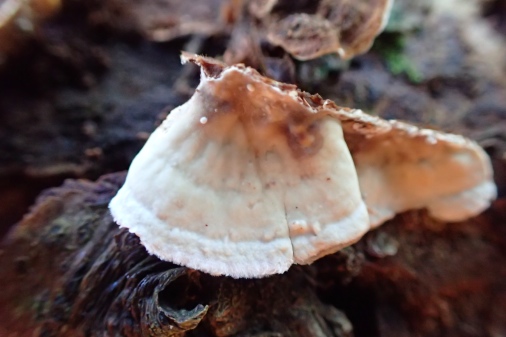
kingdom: Fungi
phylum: Basidiomycota
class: Agaricomycetes
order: Russulales
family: Hericiaceae
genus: Laxitextum
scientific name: Laxitextum bicolor
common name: tvefarvet filtskind
